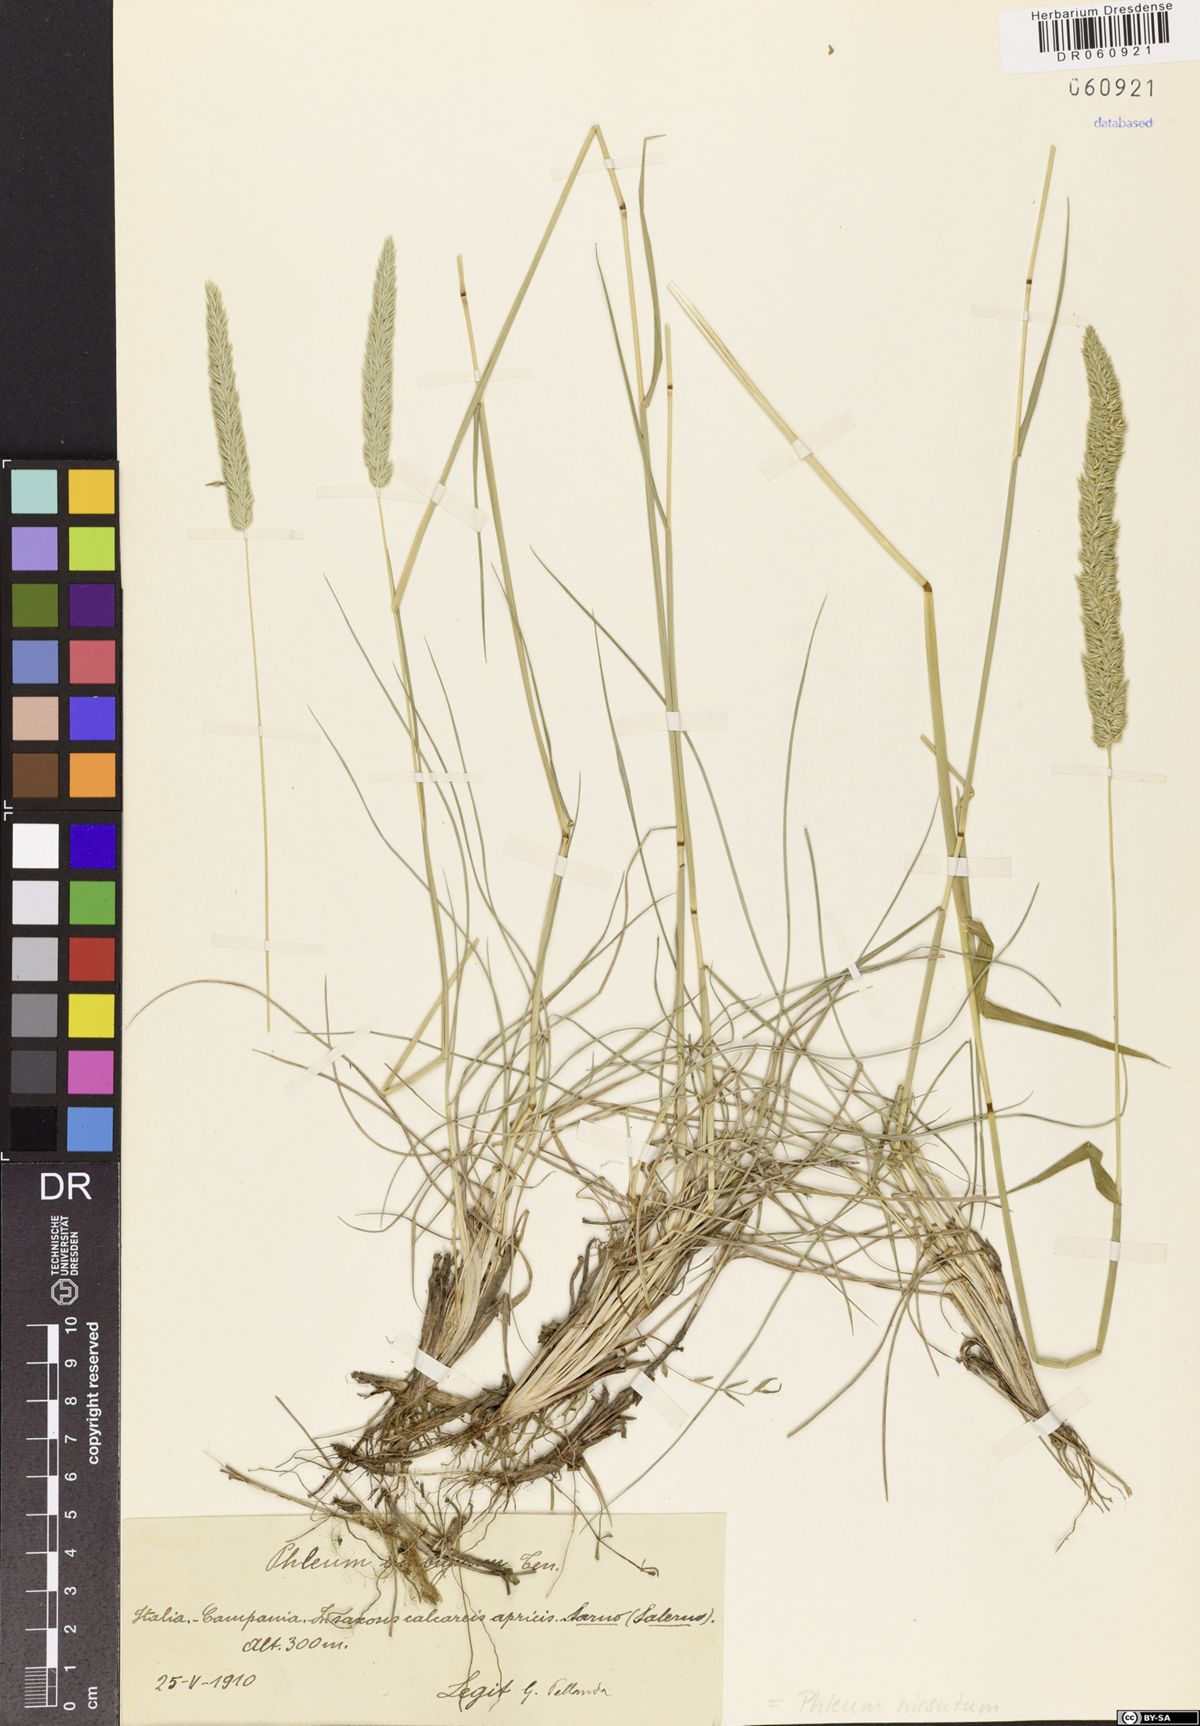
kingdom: Plantae
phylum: Tracheophyta
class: Liliopsida
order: Poales
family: Poaceae
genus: Phleum
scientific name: Phleum hirsutum
